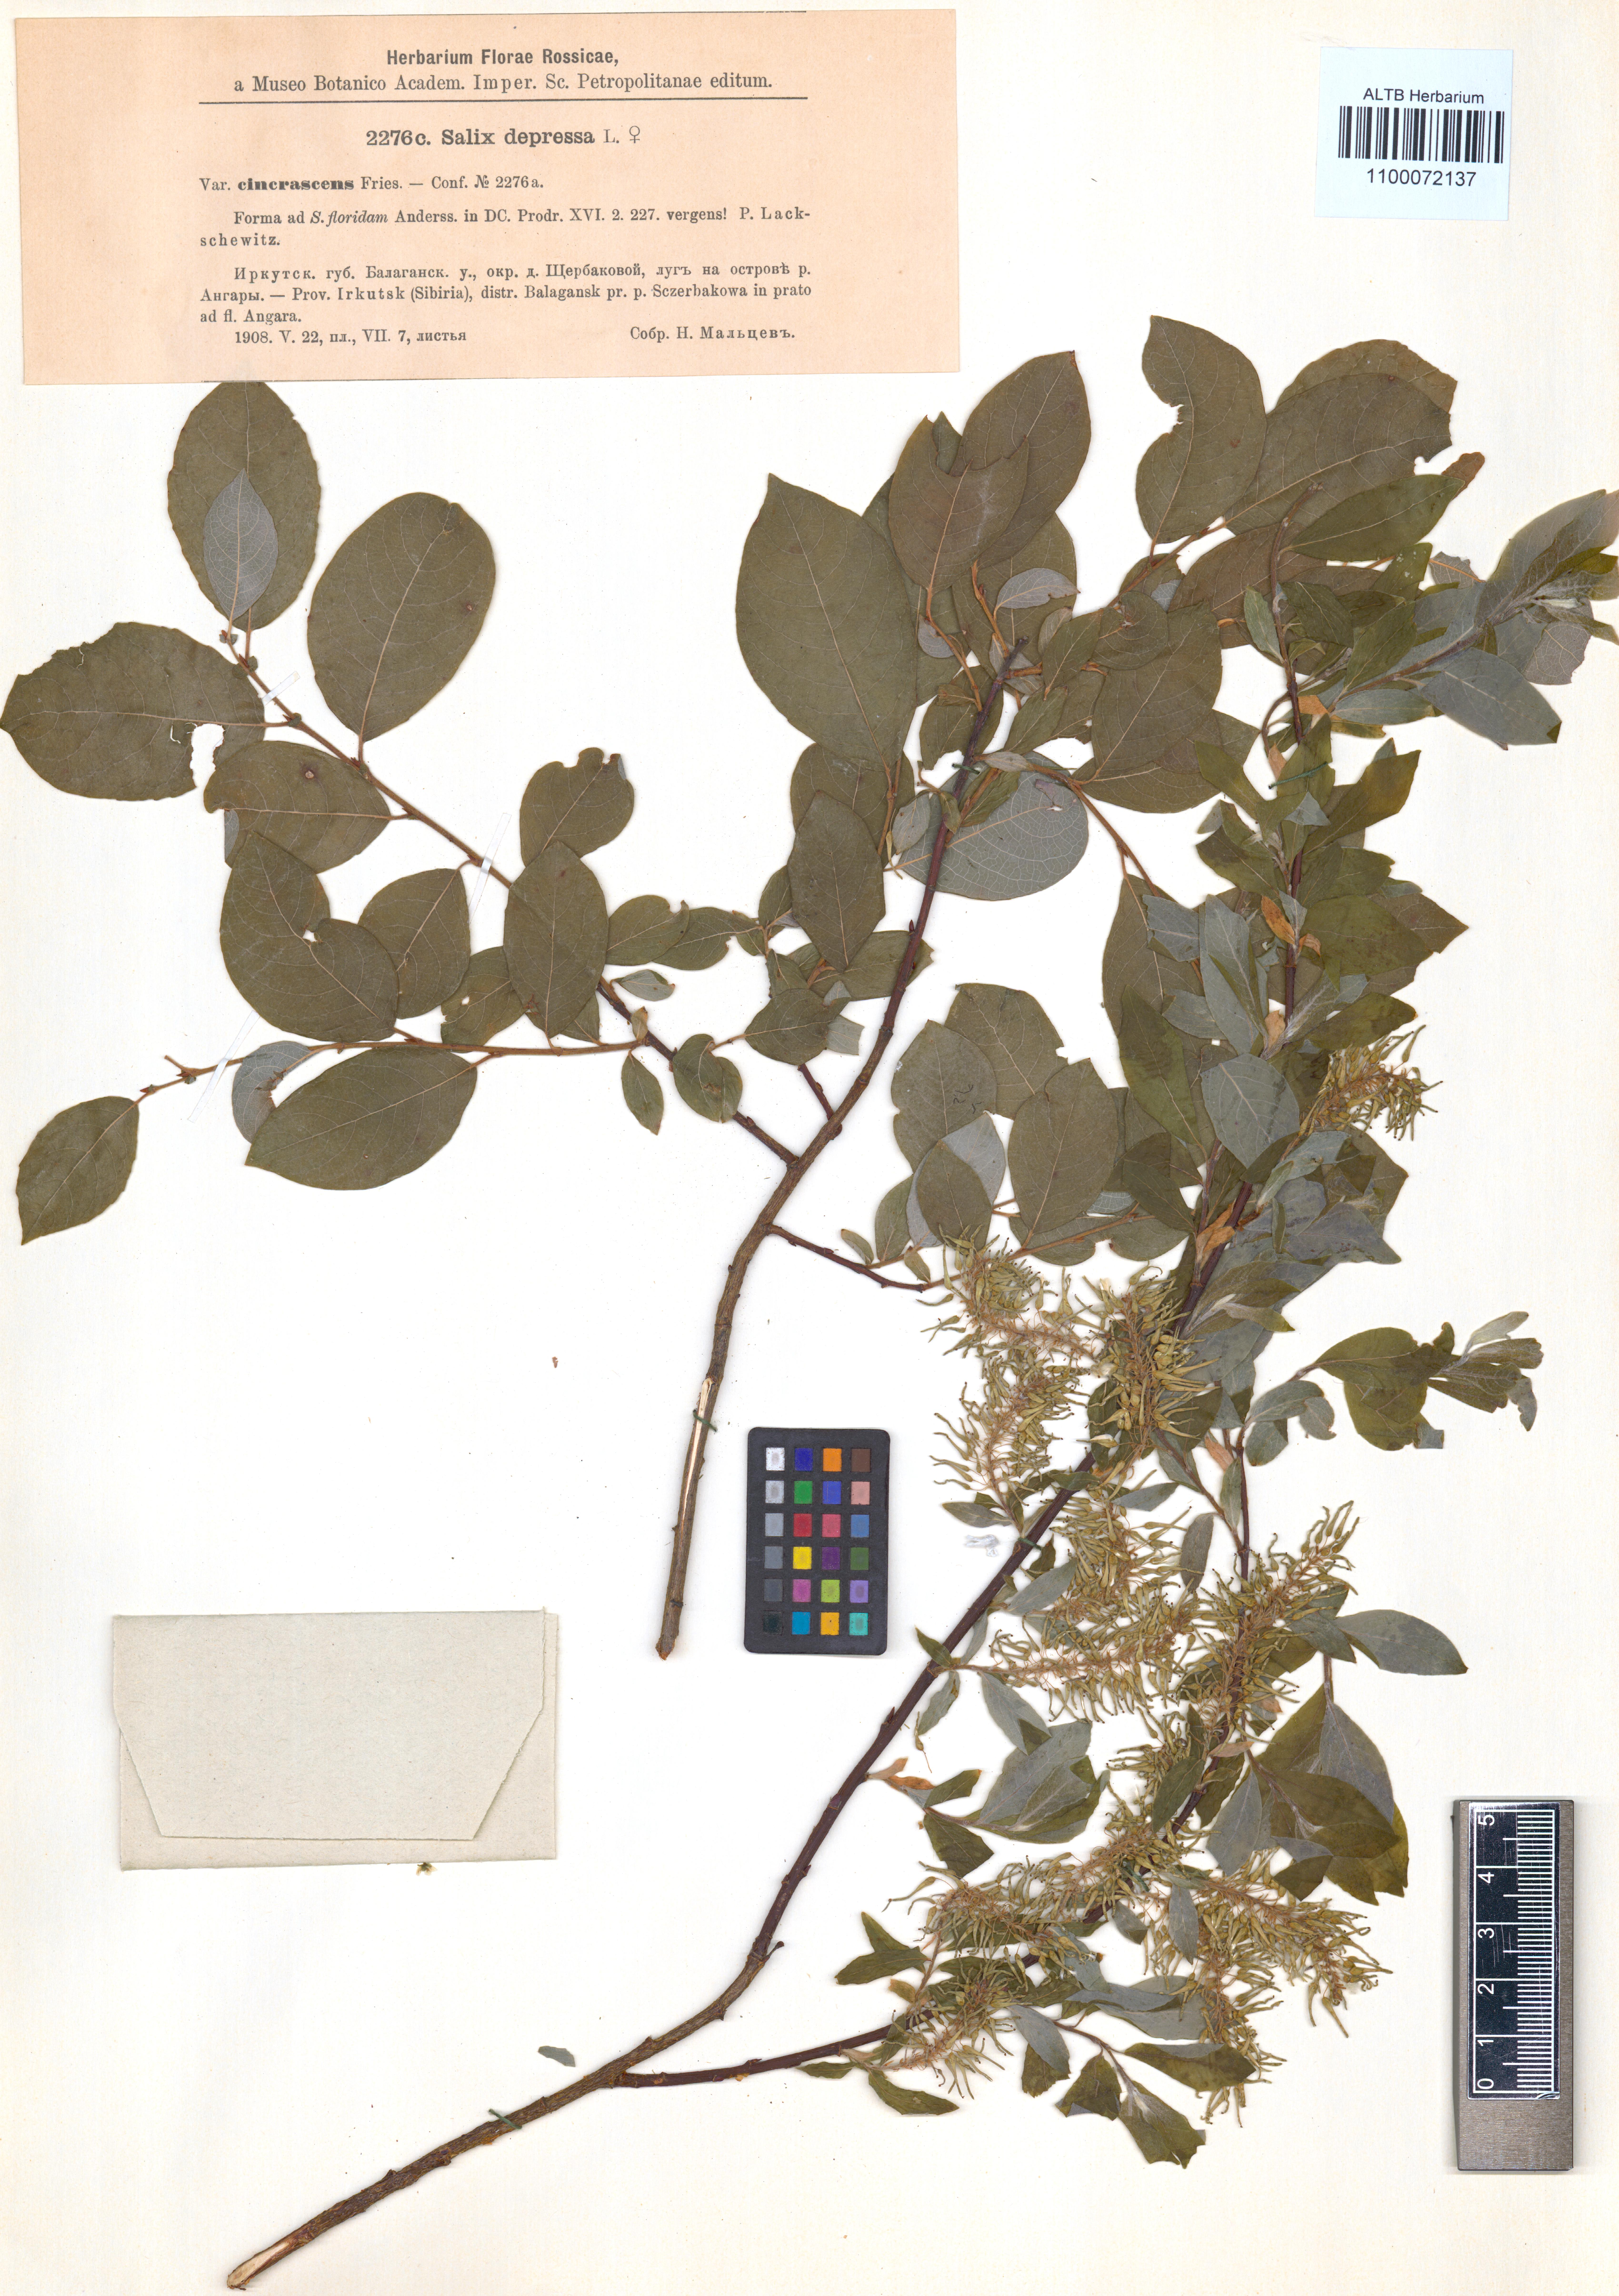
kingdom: Plantae
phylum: Tracheophyta
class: Magnoliopsida
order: Malpighiales
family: Salicaceae
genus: Salix
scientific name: Salix lanata
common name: Woolly willow
